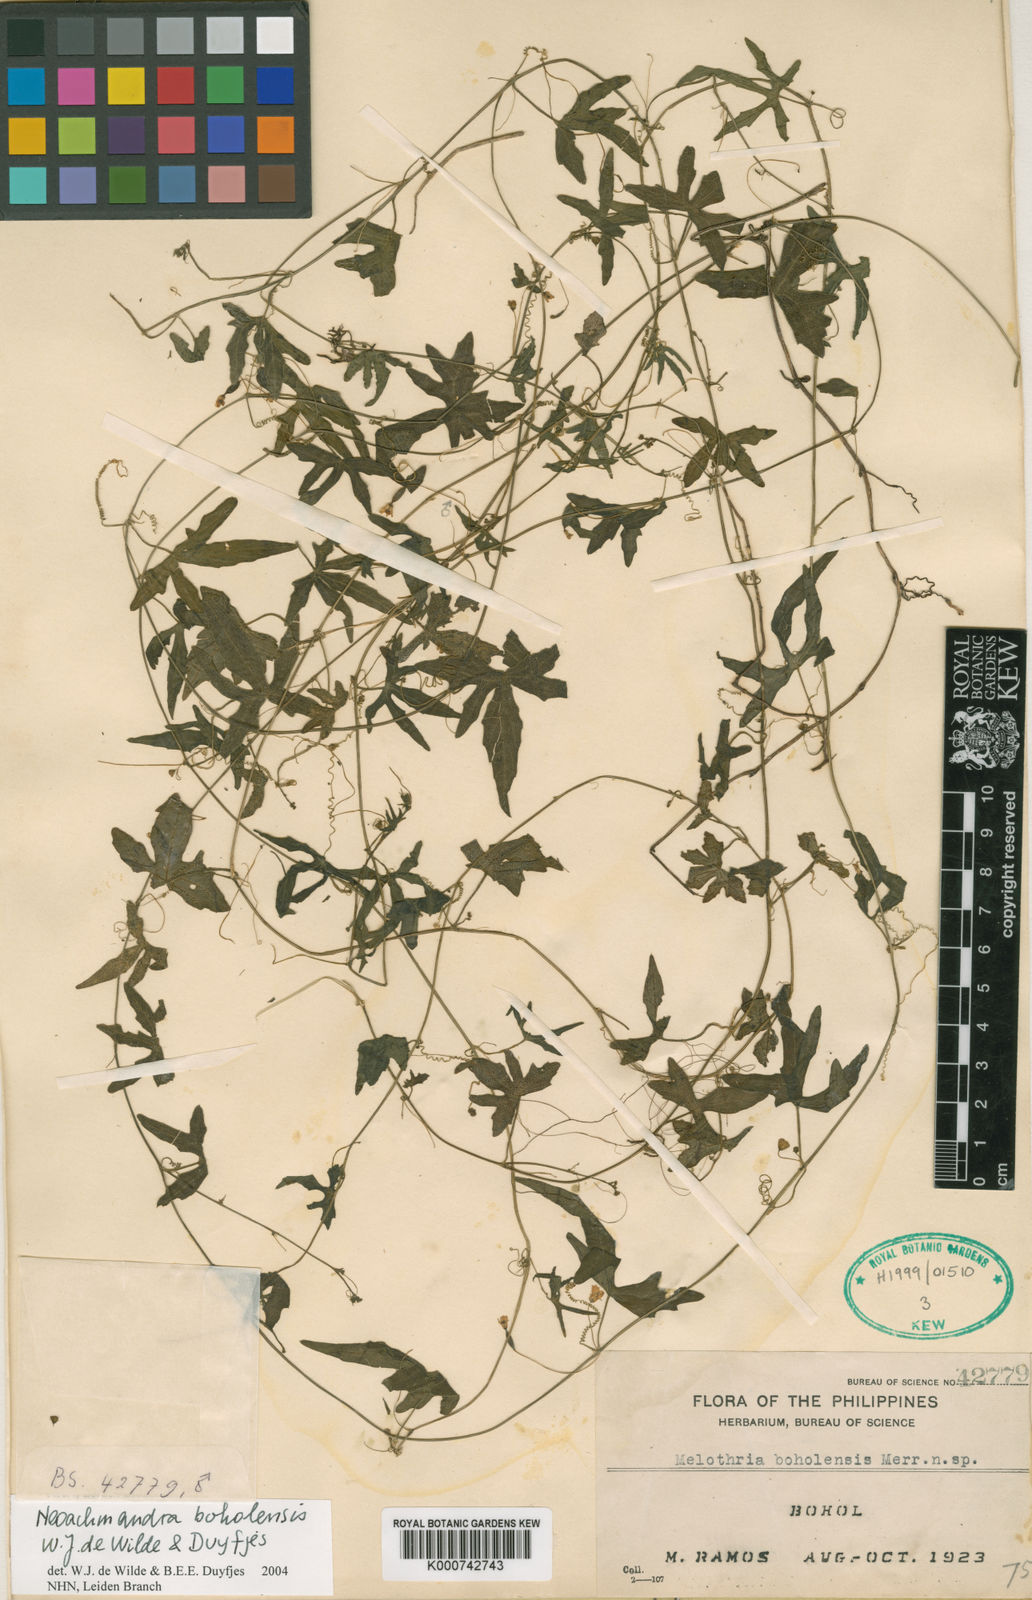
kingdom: Plantae
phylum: Tracheophyta
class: Magnoliopsida
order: Cucurbitales
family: Cucurbitaceae
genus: Zehneria
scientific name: Zehneria boholensis
